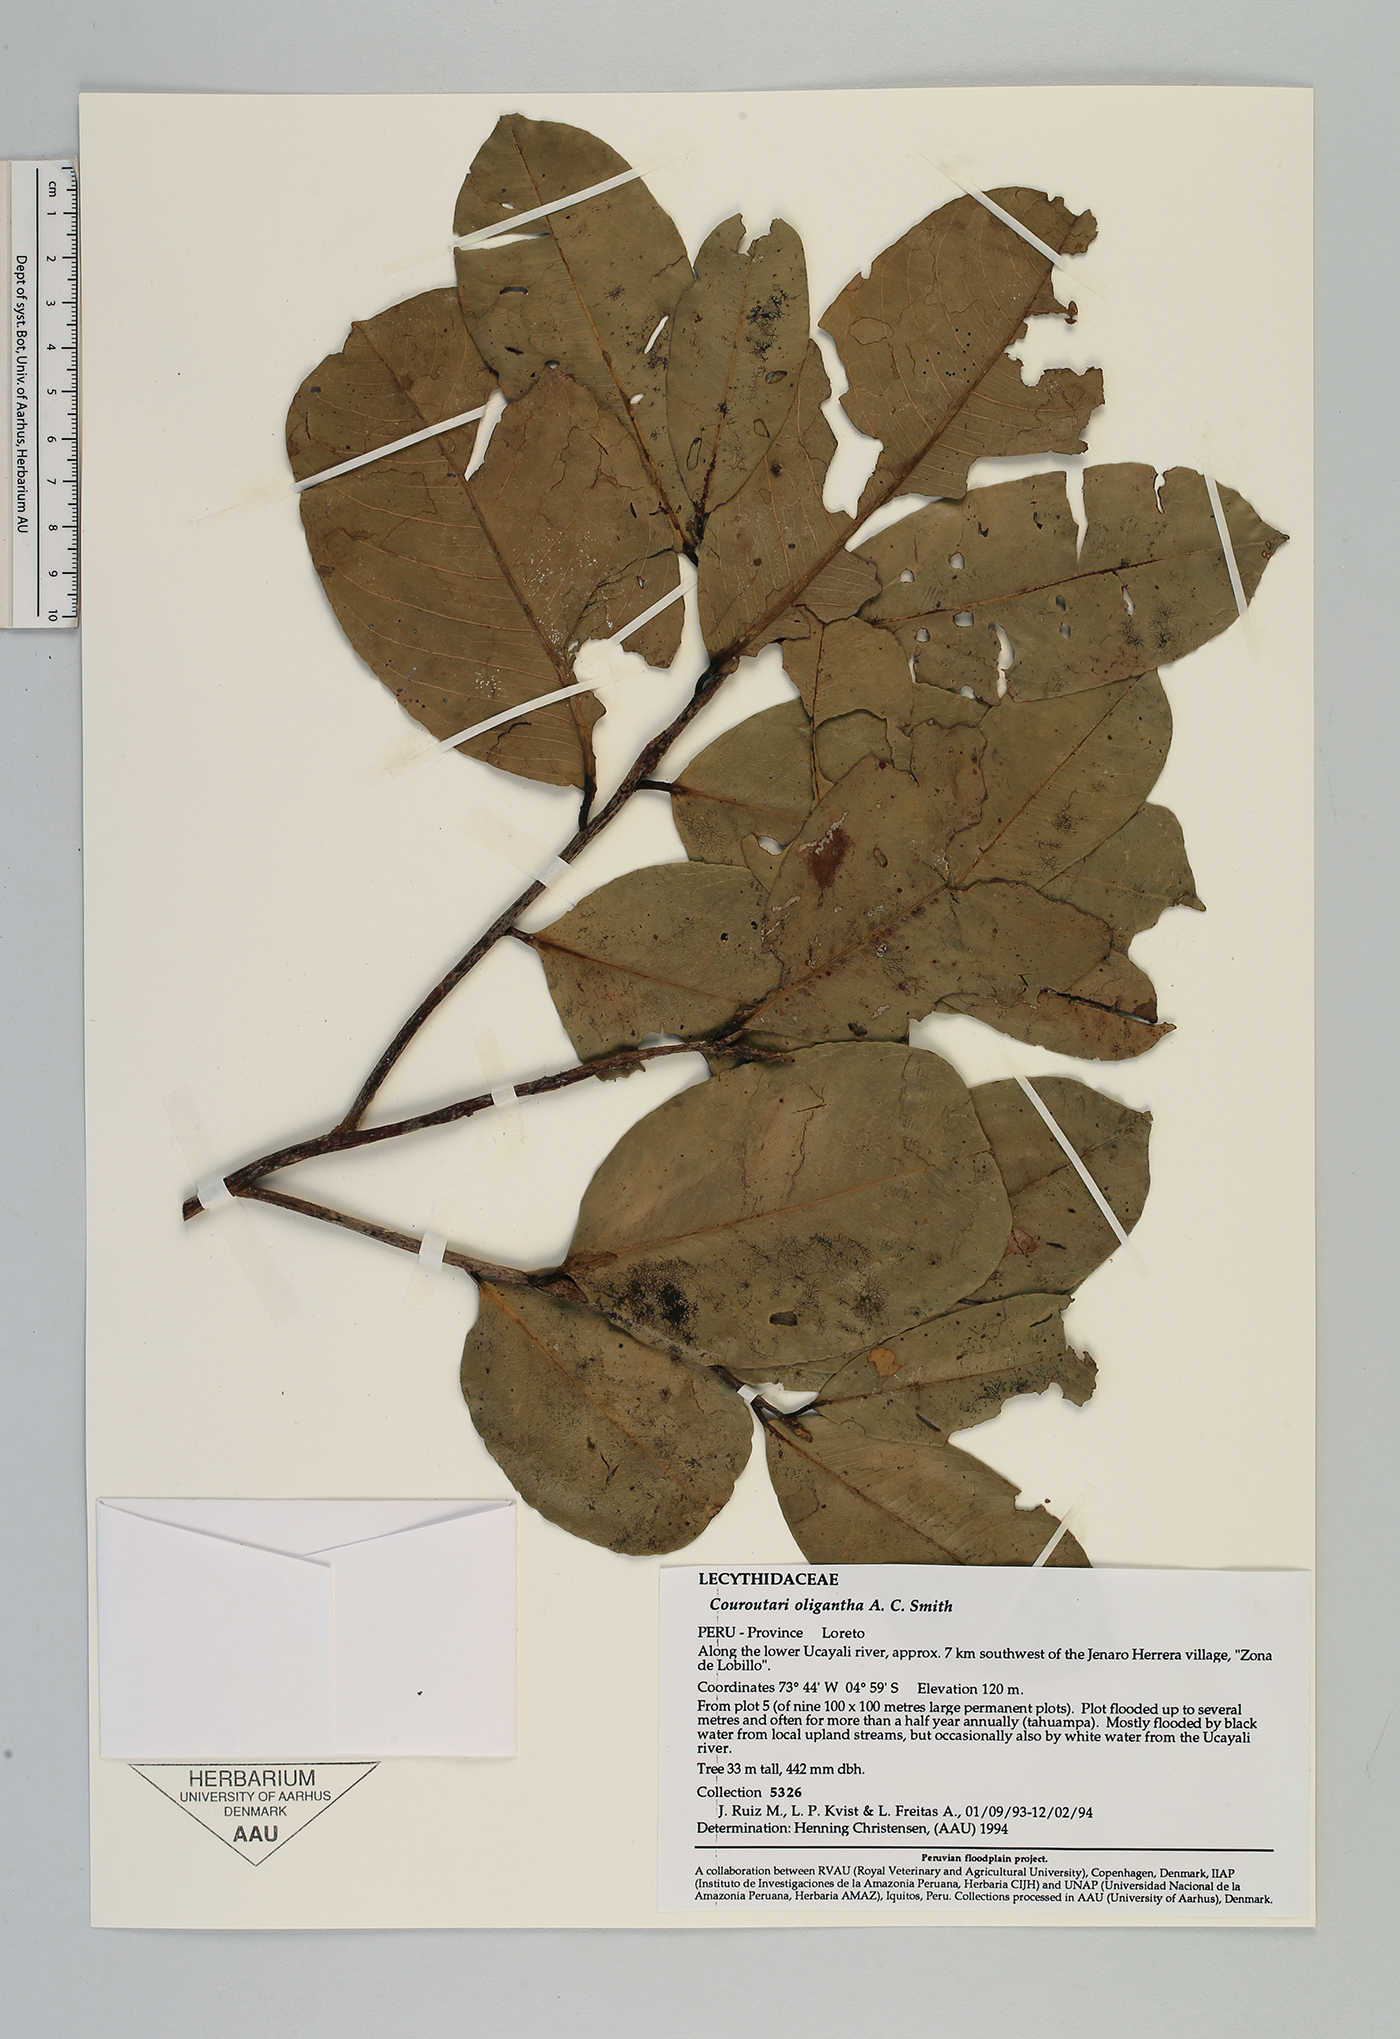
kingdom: Plantae
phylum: Tracheophyta
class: Magnoliopsida
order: Ericales
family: Lecythidaceae
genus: Couratari
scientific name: Couratari oligantha
